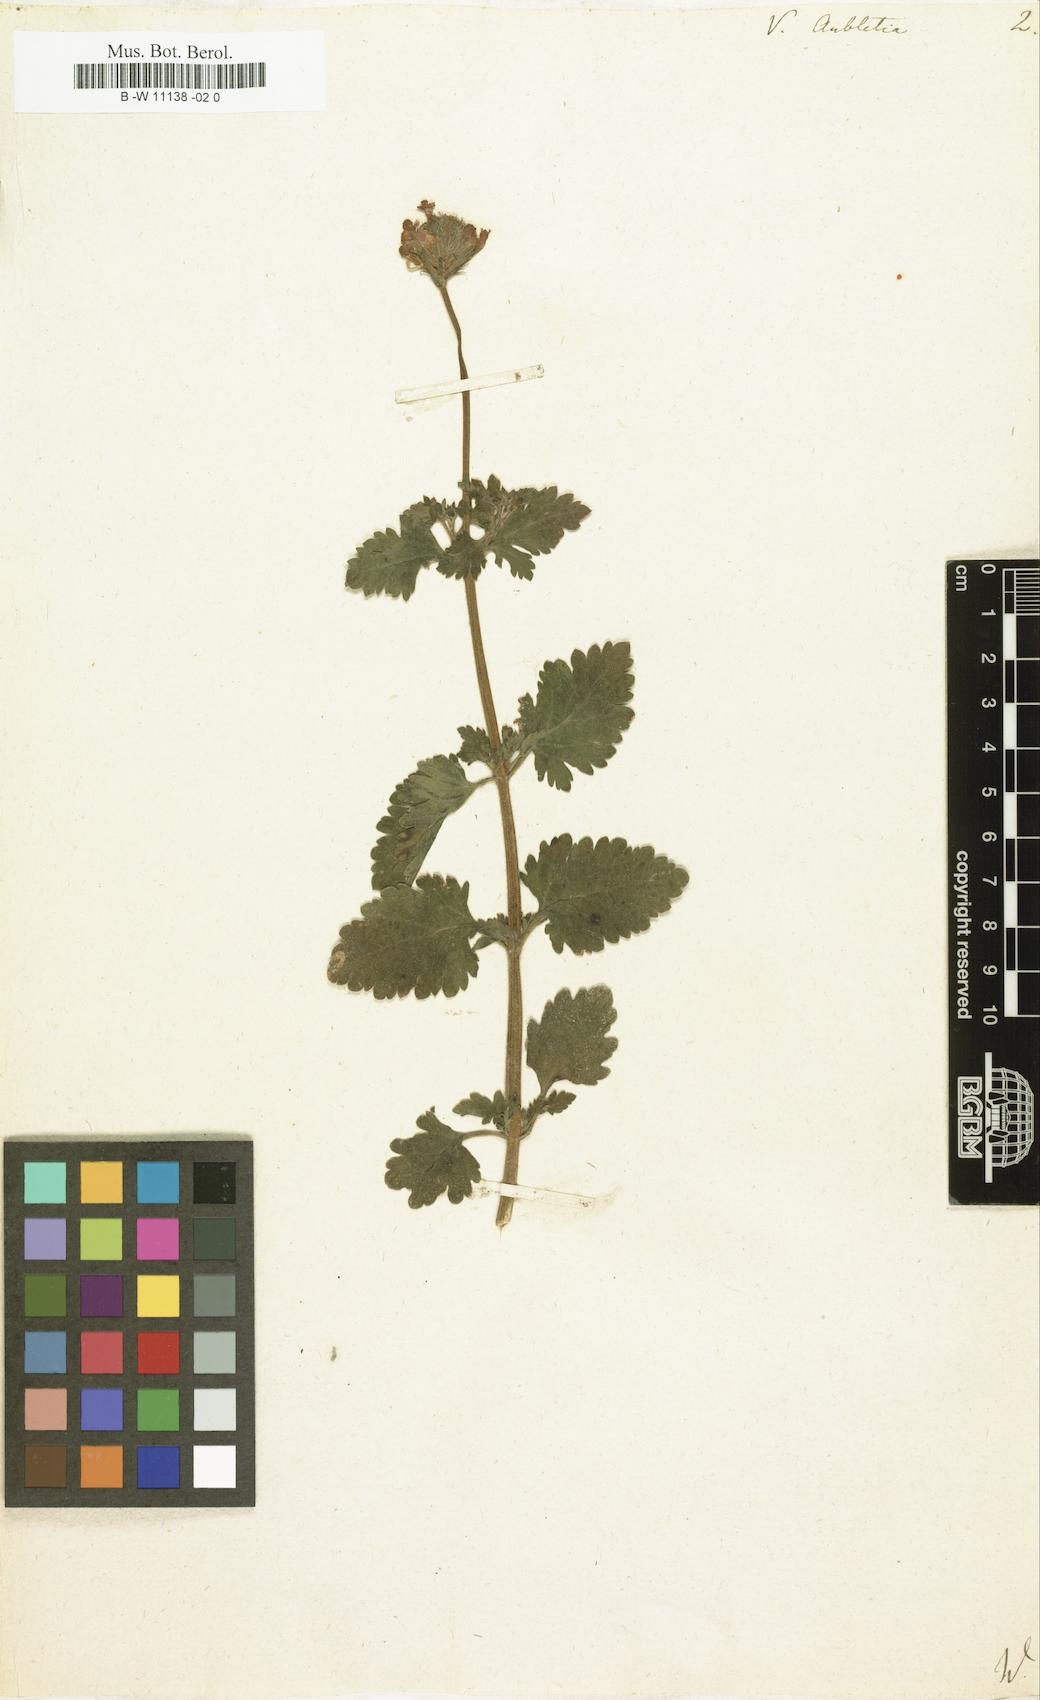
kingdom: Plantae
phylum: Tracheophyta
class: Magnoliopsida
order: Lamiales
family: Verbenaceae
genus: Verbena
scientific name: Verbena canadensis
